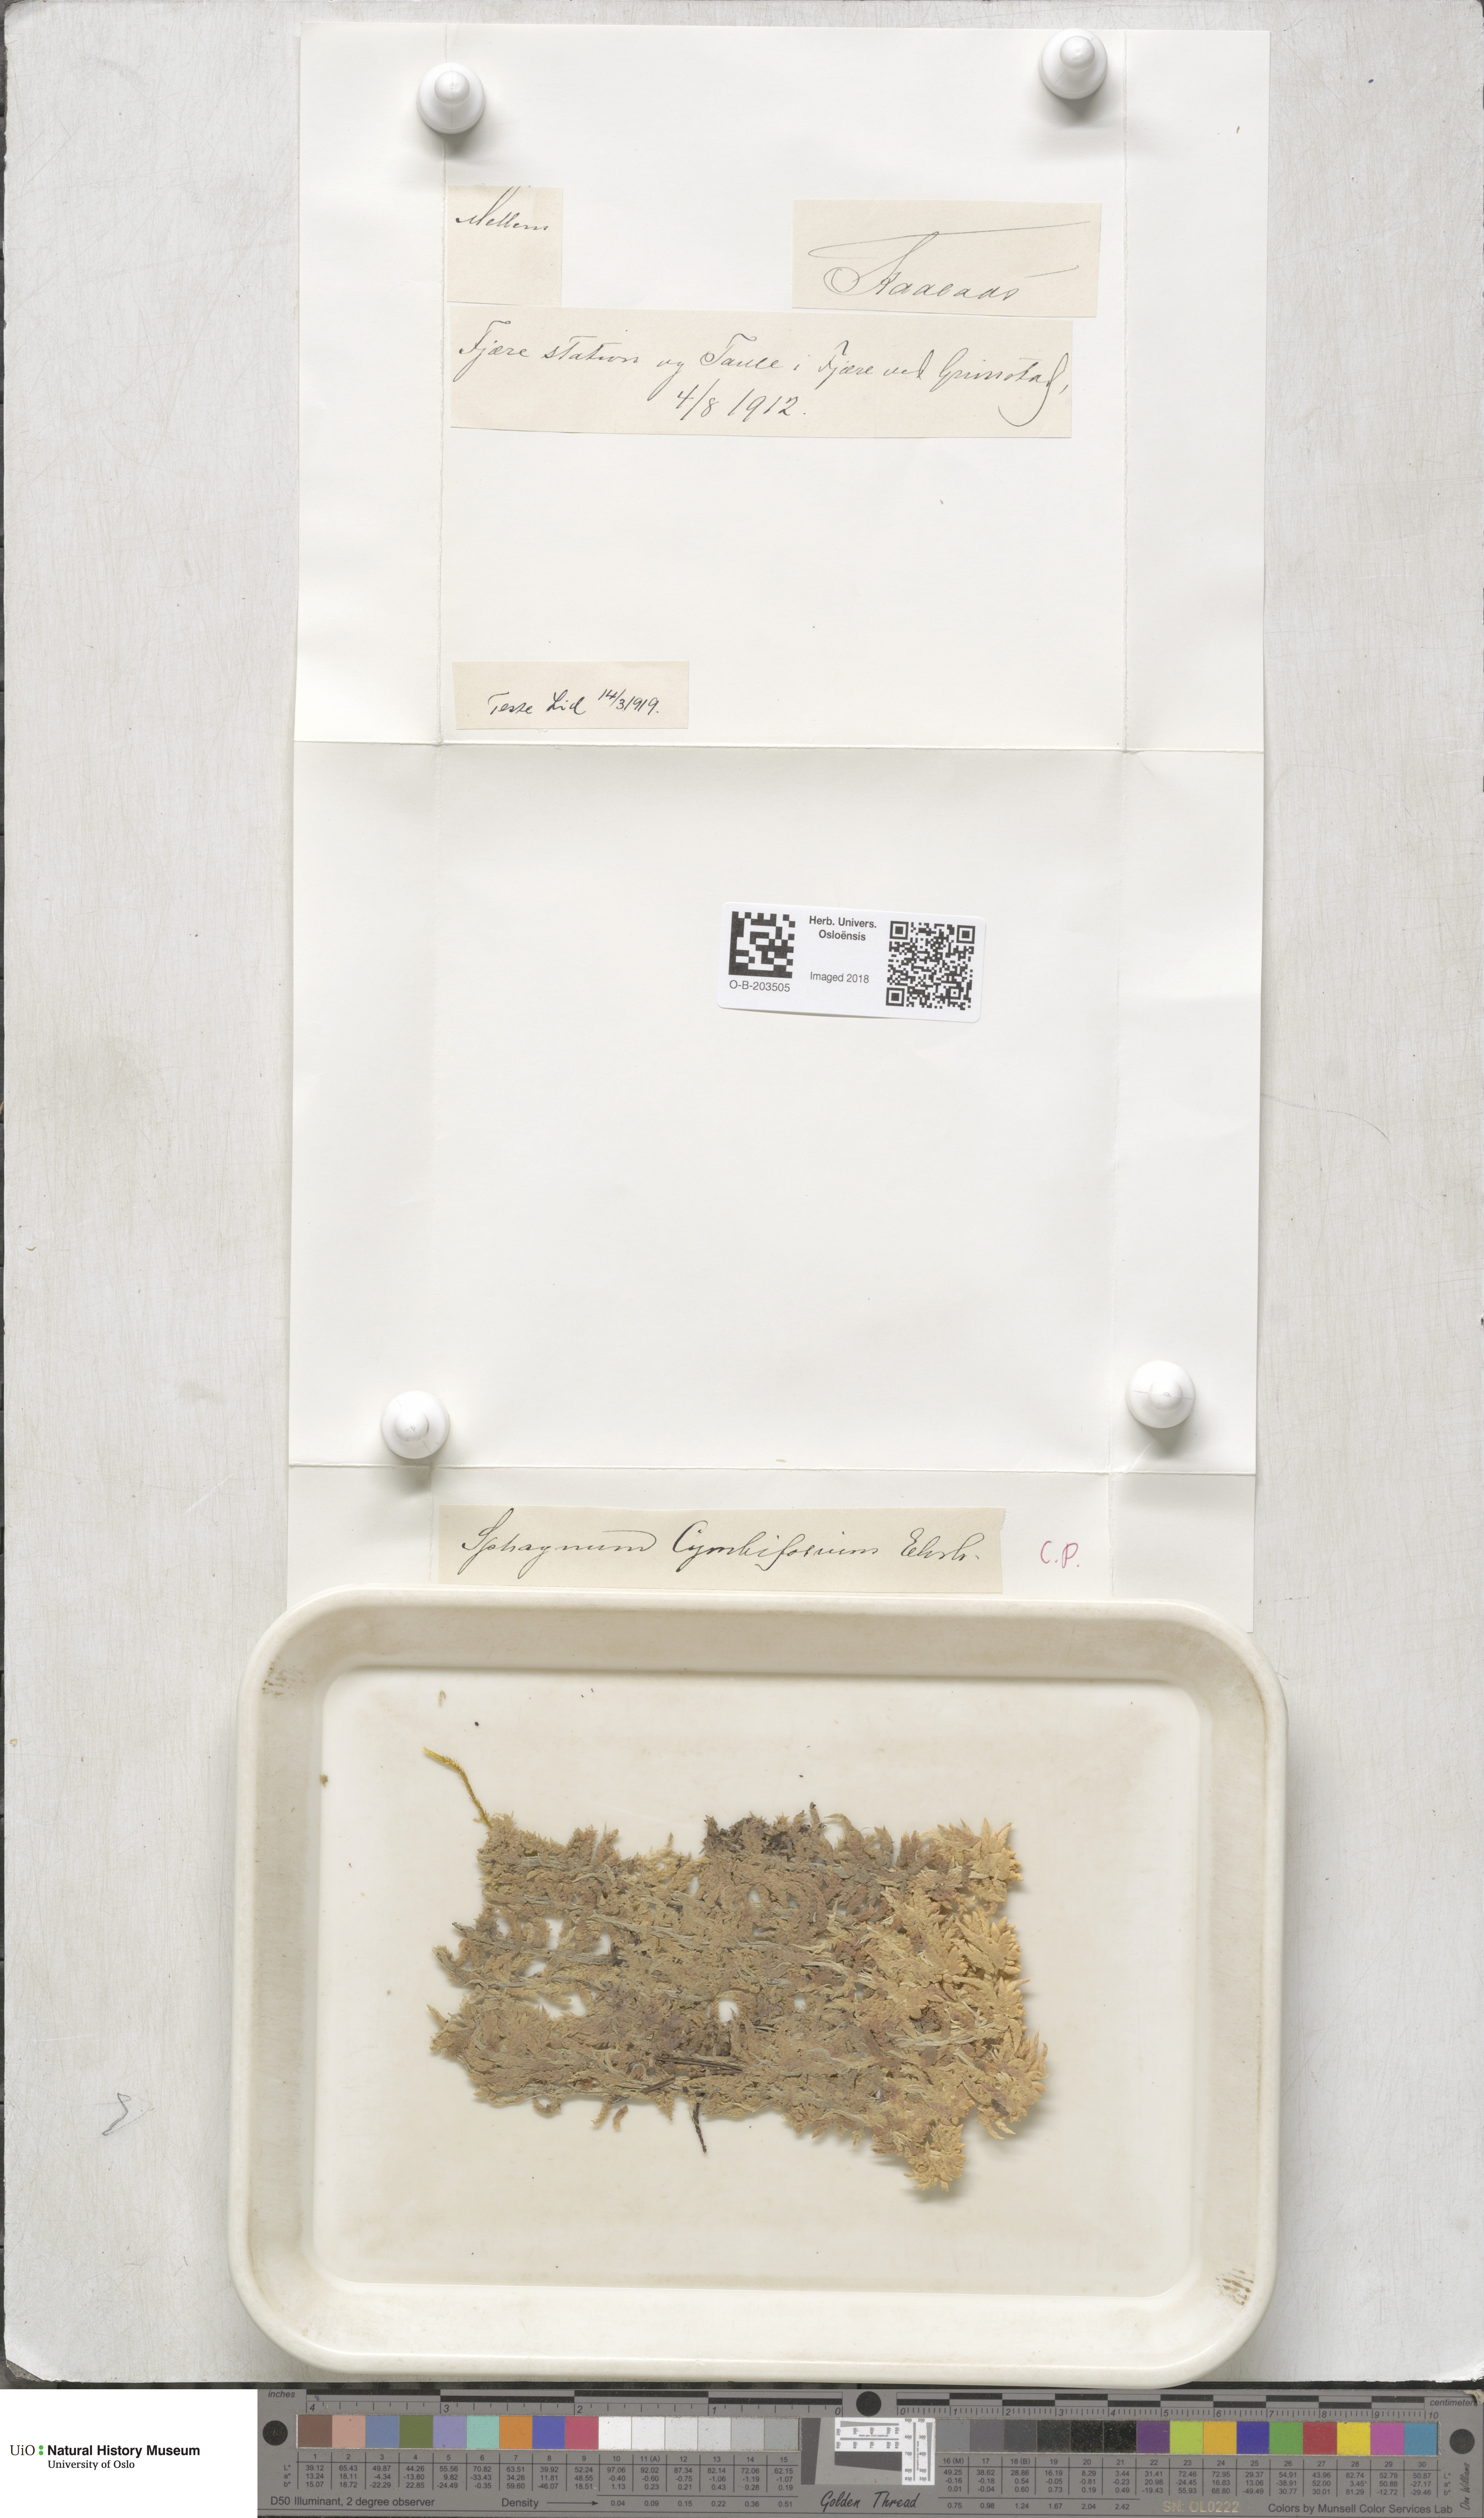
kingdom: Plantae
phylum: Bryophyta
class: Sphagnopsida
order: Sphagnales
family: Sphagnaceae
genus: Sphagnum
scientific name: Sphagnum palustre
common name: Blunt-leaved bog-moss
